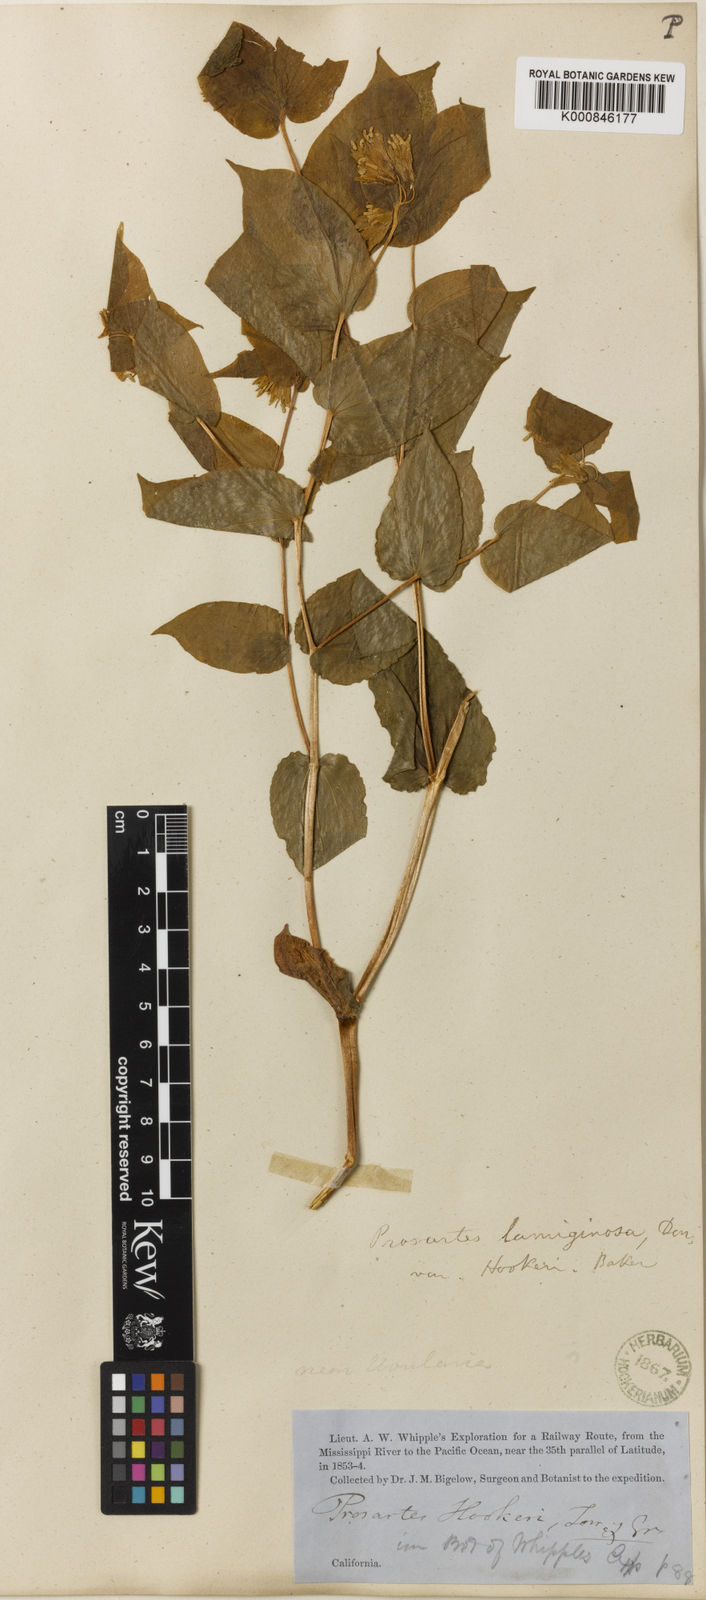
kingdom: Plantae
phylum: Tracheophyta
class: Liliopsida
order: Liliales
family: Liliaceae
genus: Prosartes
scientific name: Prosartes hookeri
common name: Fairy-bells
